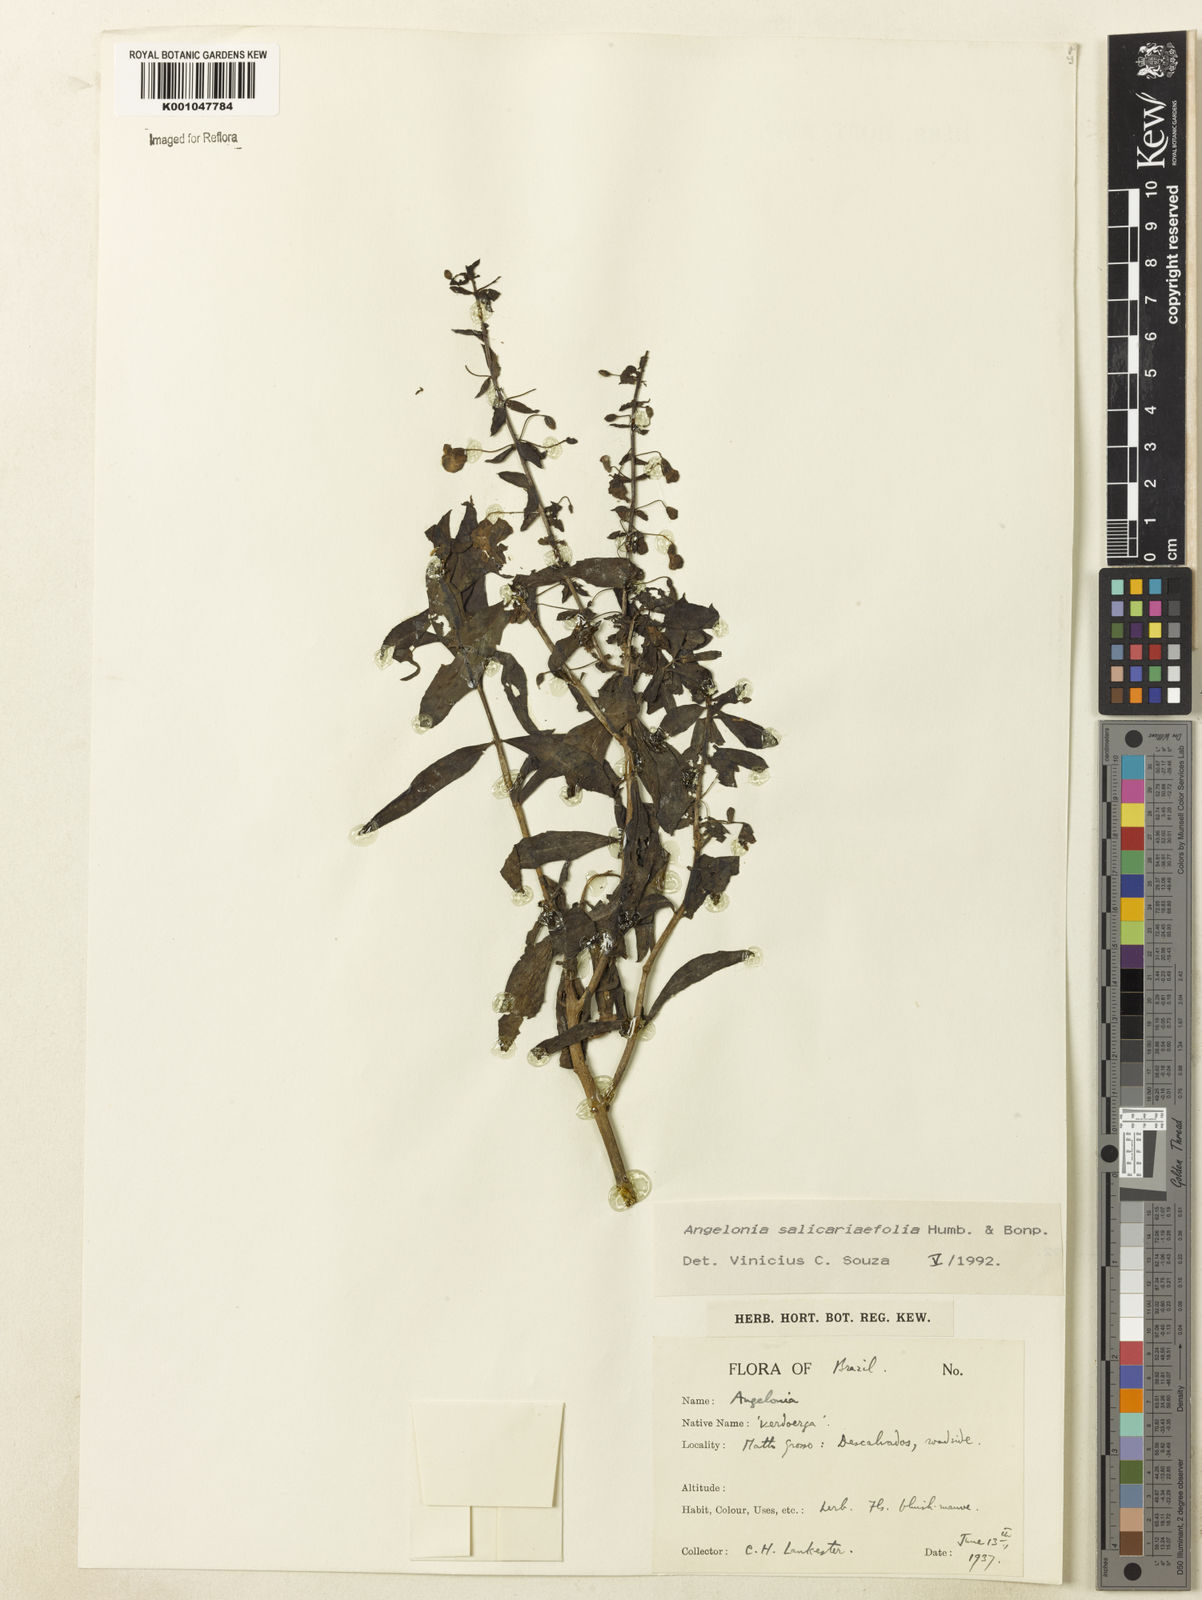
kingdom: Plantae
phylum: Tracheophyta
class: Magnoliopsida
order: Lamiales
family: Plantaginaceae
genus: Angelonia
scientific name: Angelonia salicariifolia
